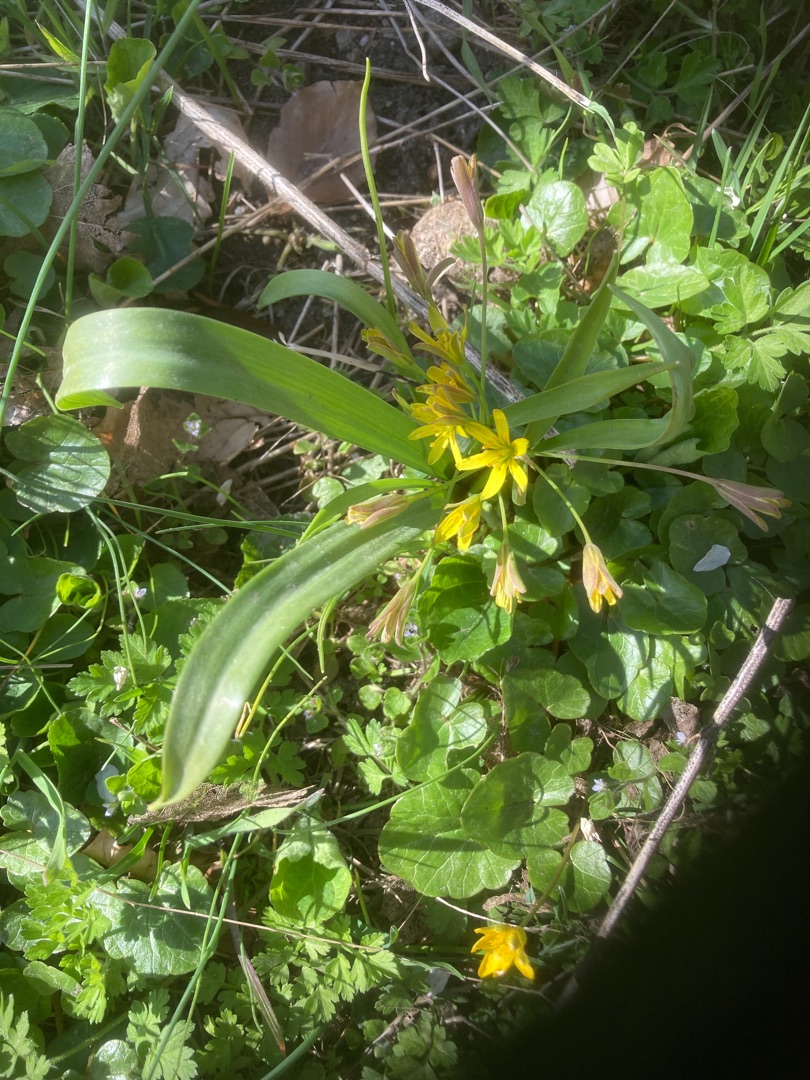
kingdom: Plantae
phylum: Tracheophyta
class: Liliopsida
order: Liliales
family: Liliaceae
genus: Gagea
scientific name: Gagea lutea
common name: Almindelig guldstjerne
